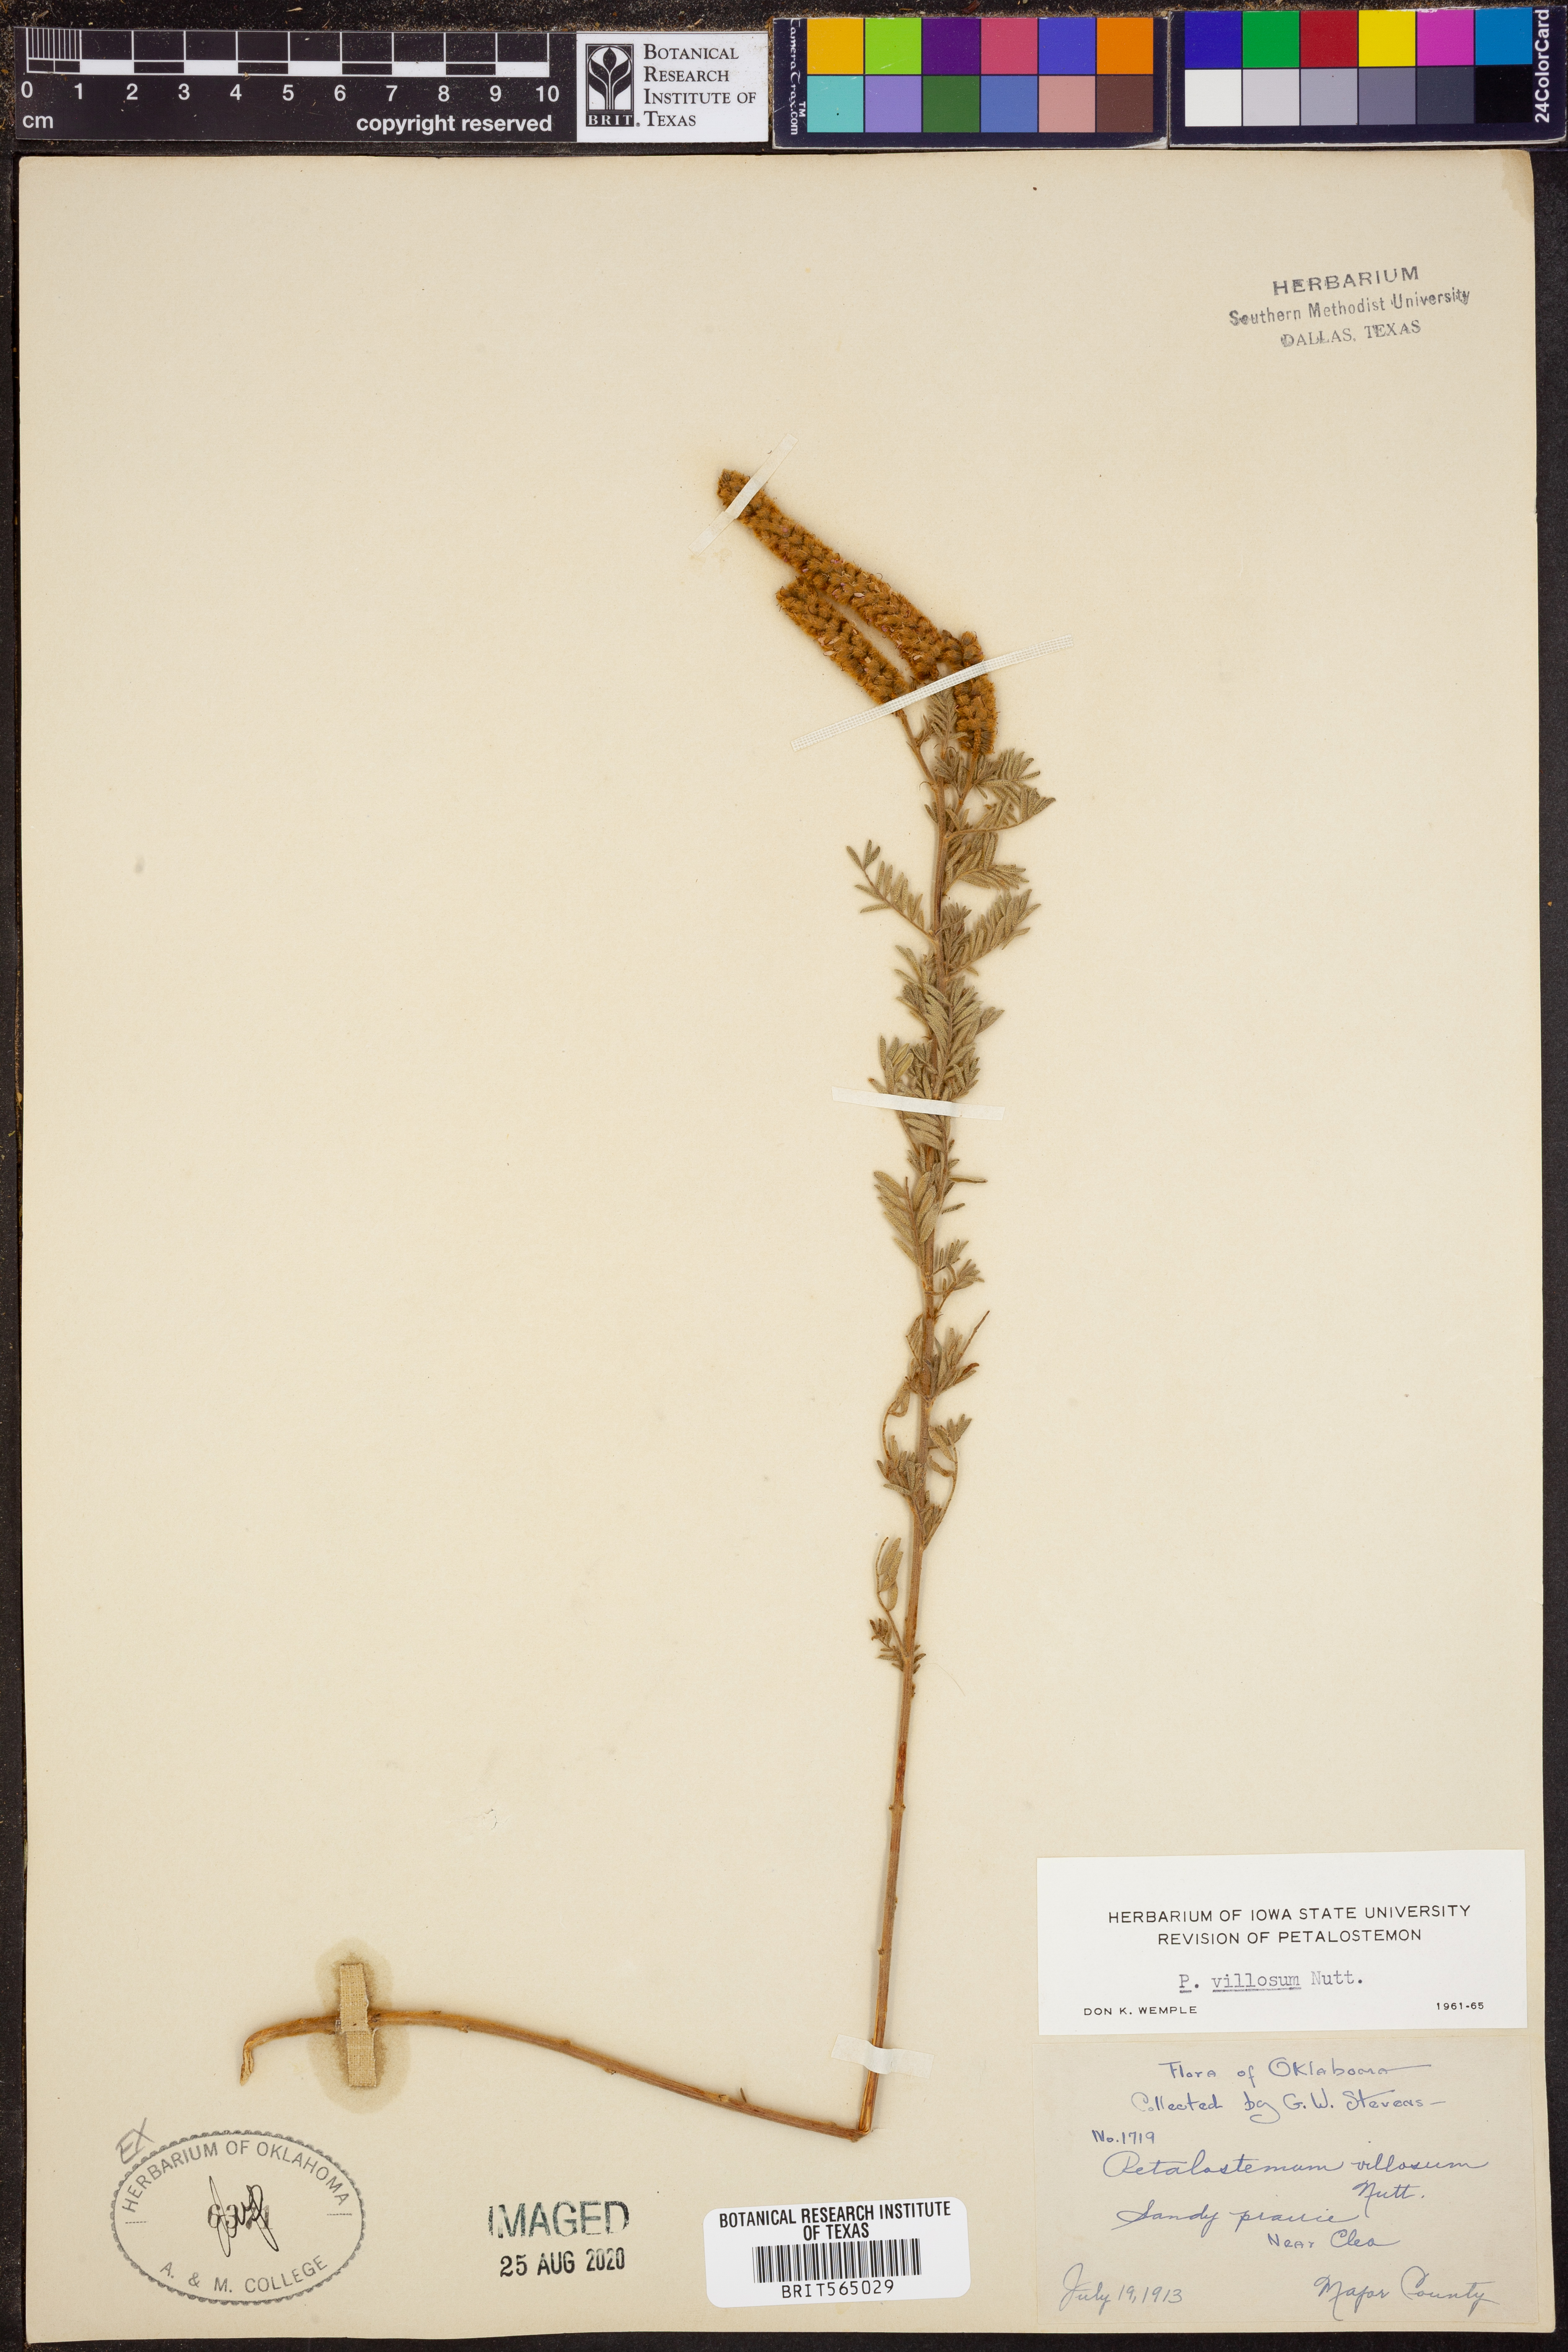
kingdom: Plantae
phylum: Tracheophyta
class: Magnoliopsida
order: Fabales
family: Fabaceae
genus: Dalea
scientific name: Dalea villosa
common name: Silky prairie-clover
